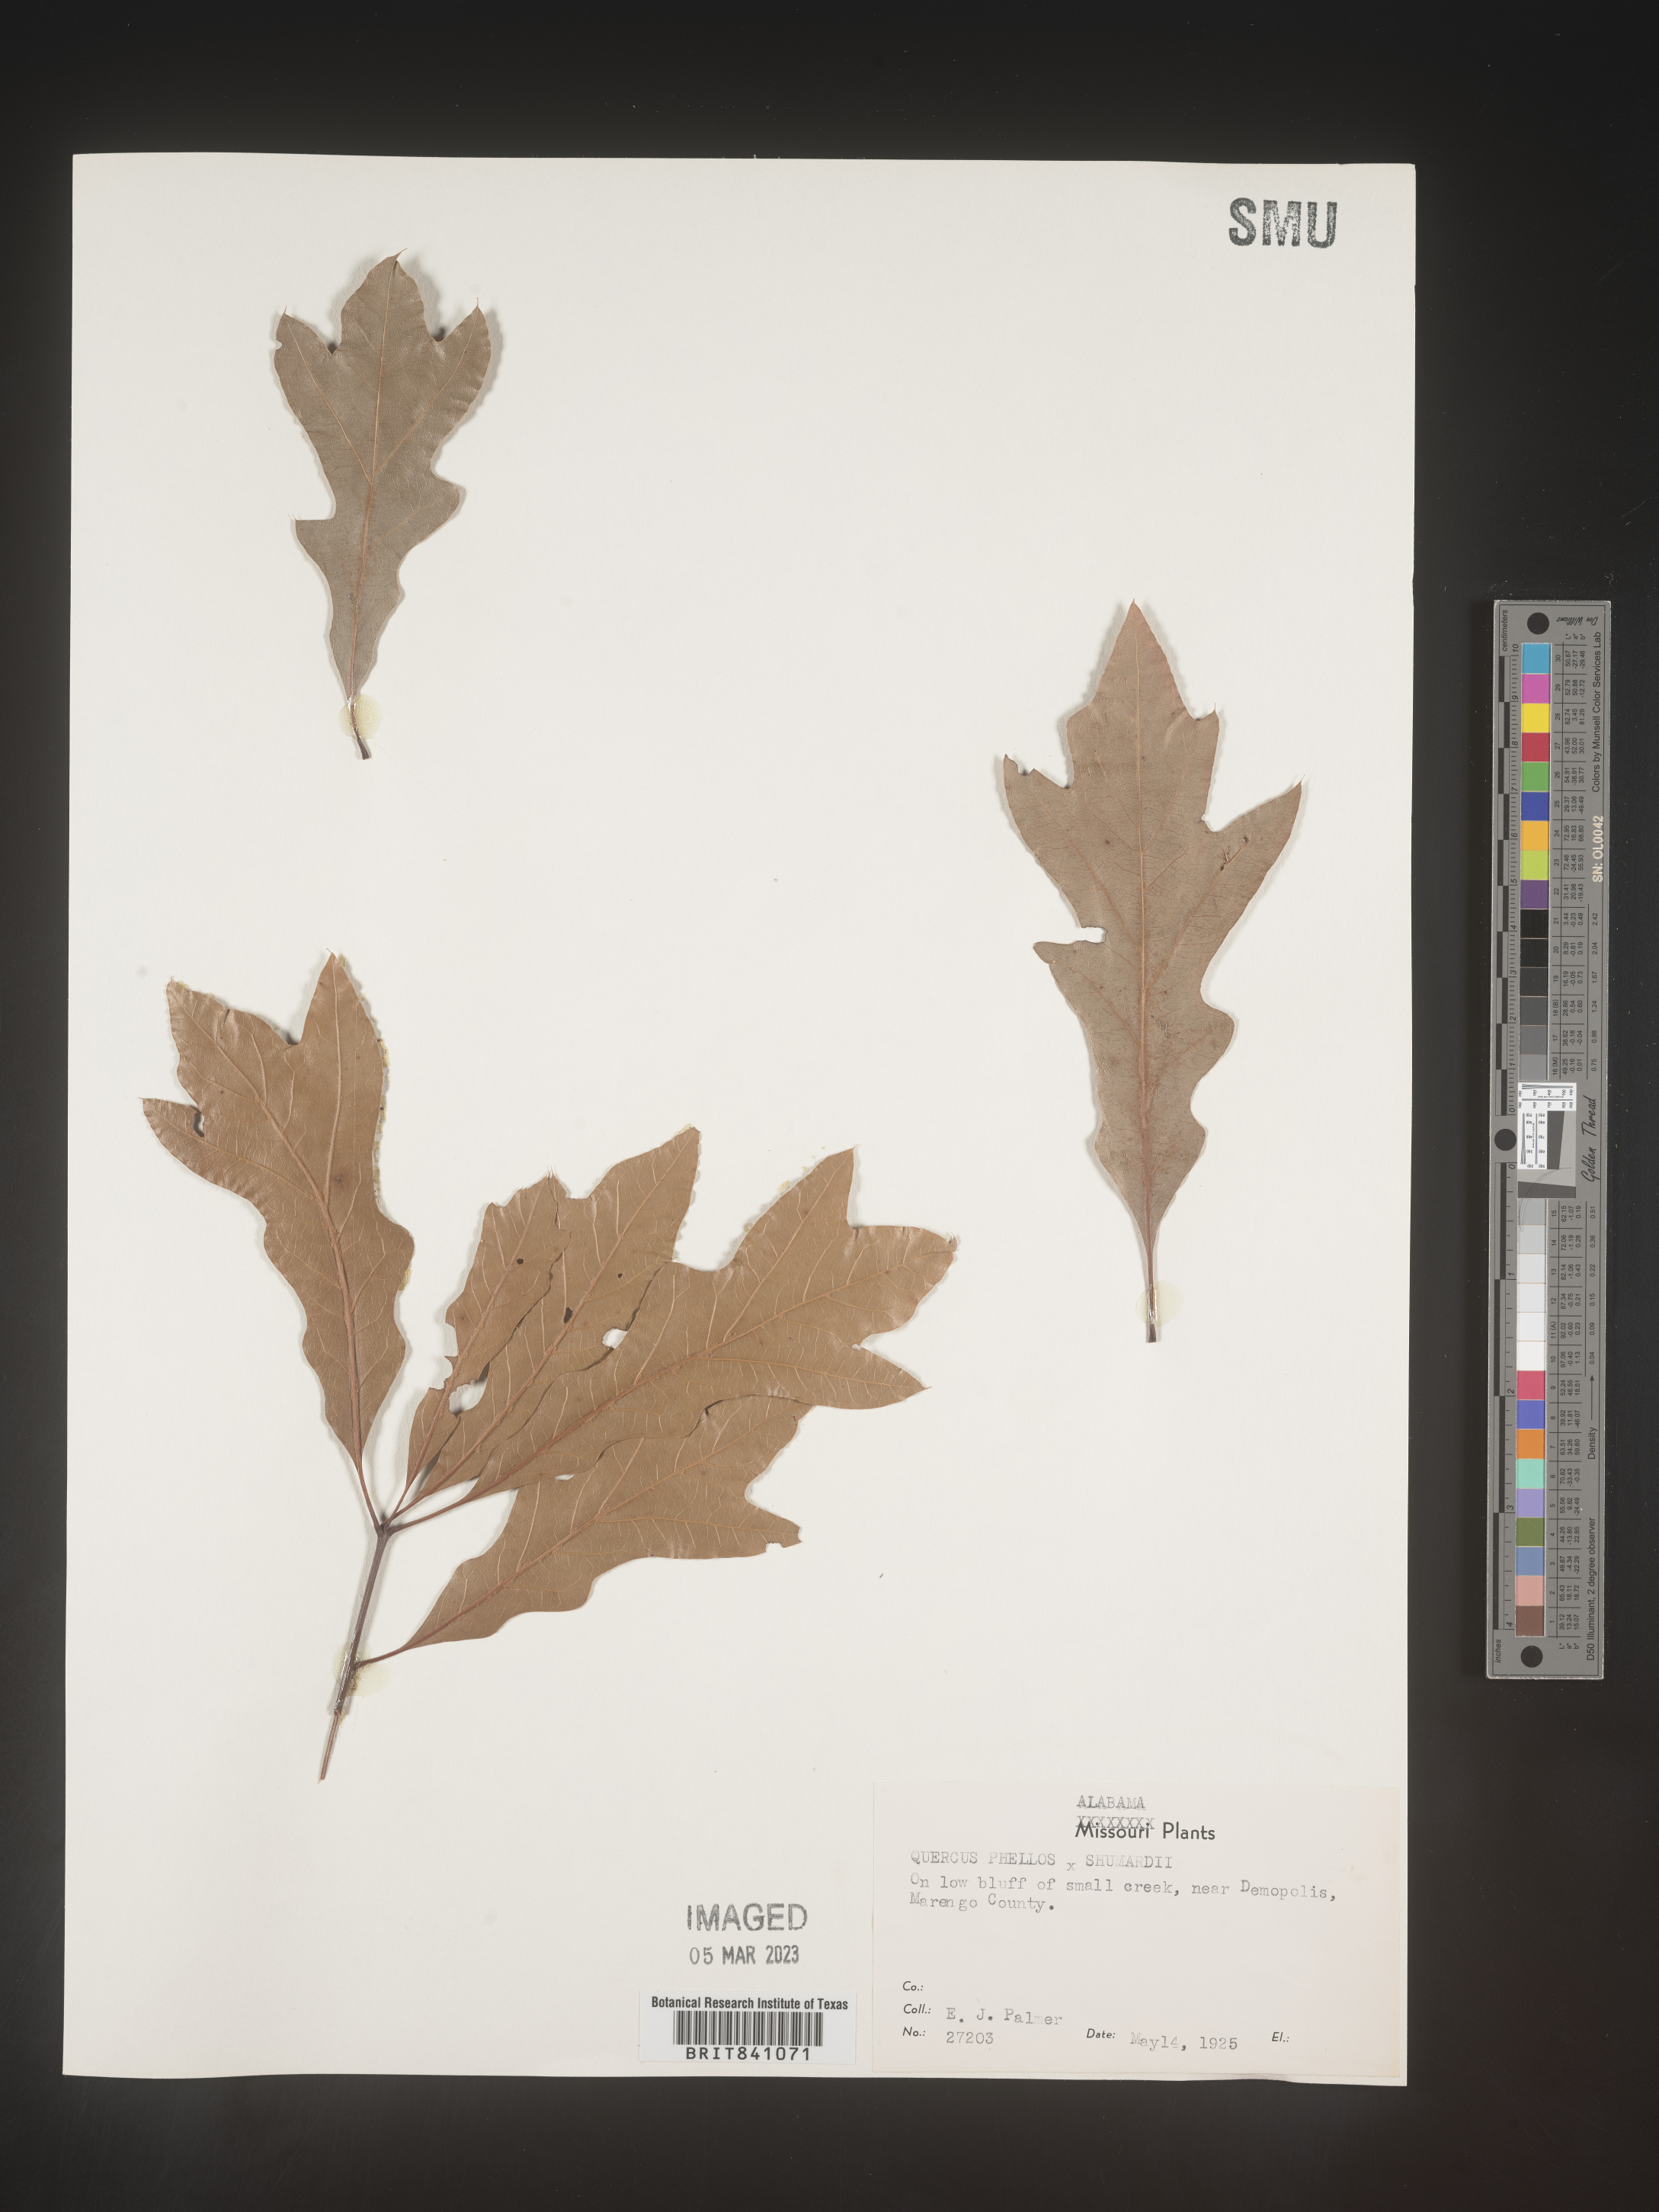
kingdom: Plantae
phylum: Tracheophyta
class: Magnoliopsida
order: Fagales
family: Fagaceae
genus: Quercus
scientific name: Quercus phellos
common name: Willow oak
